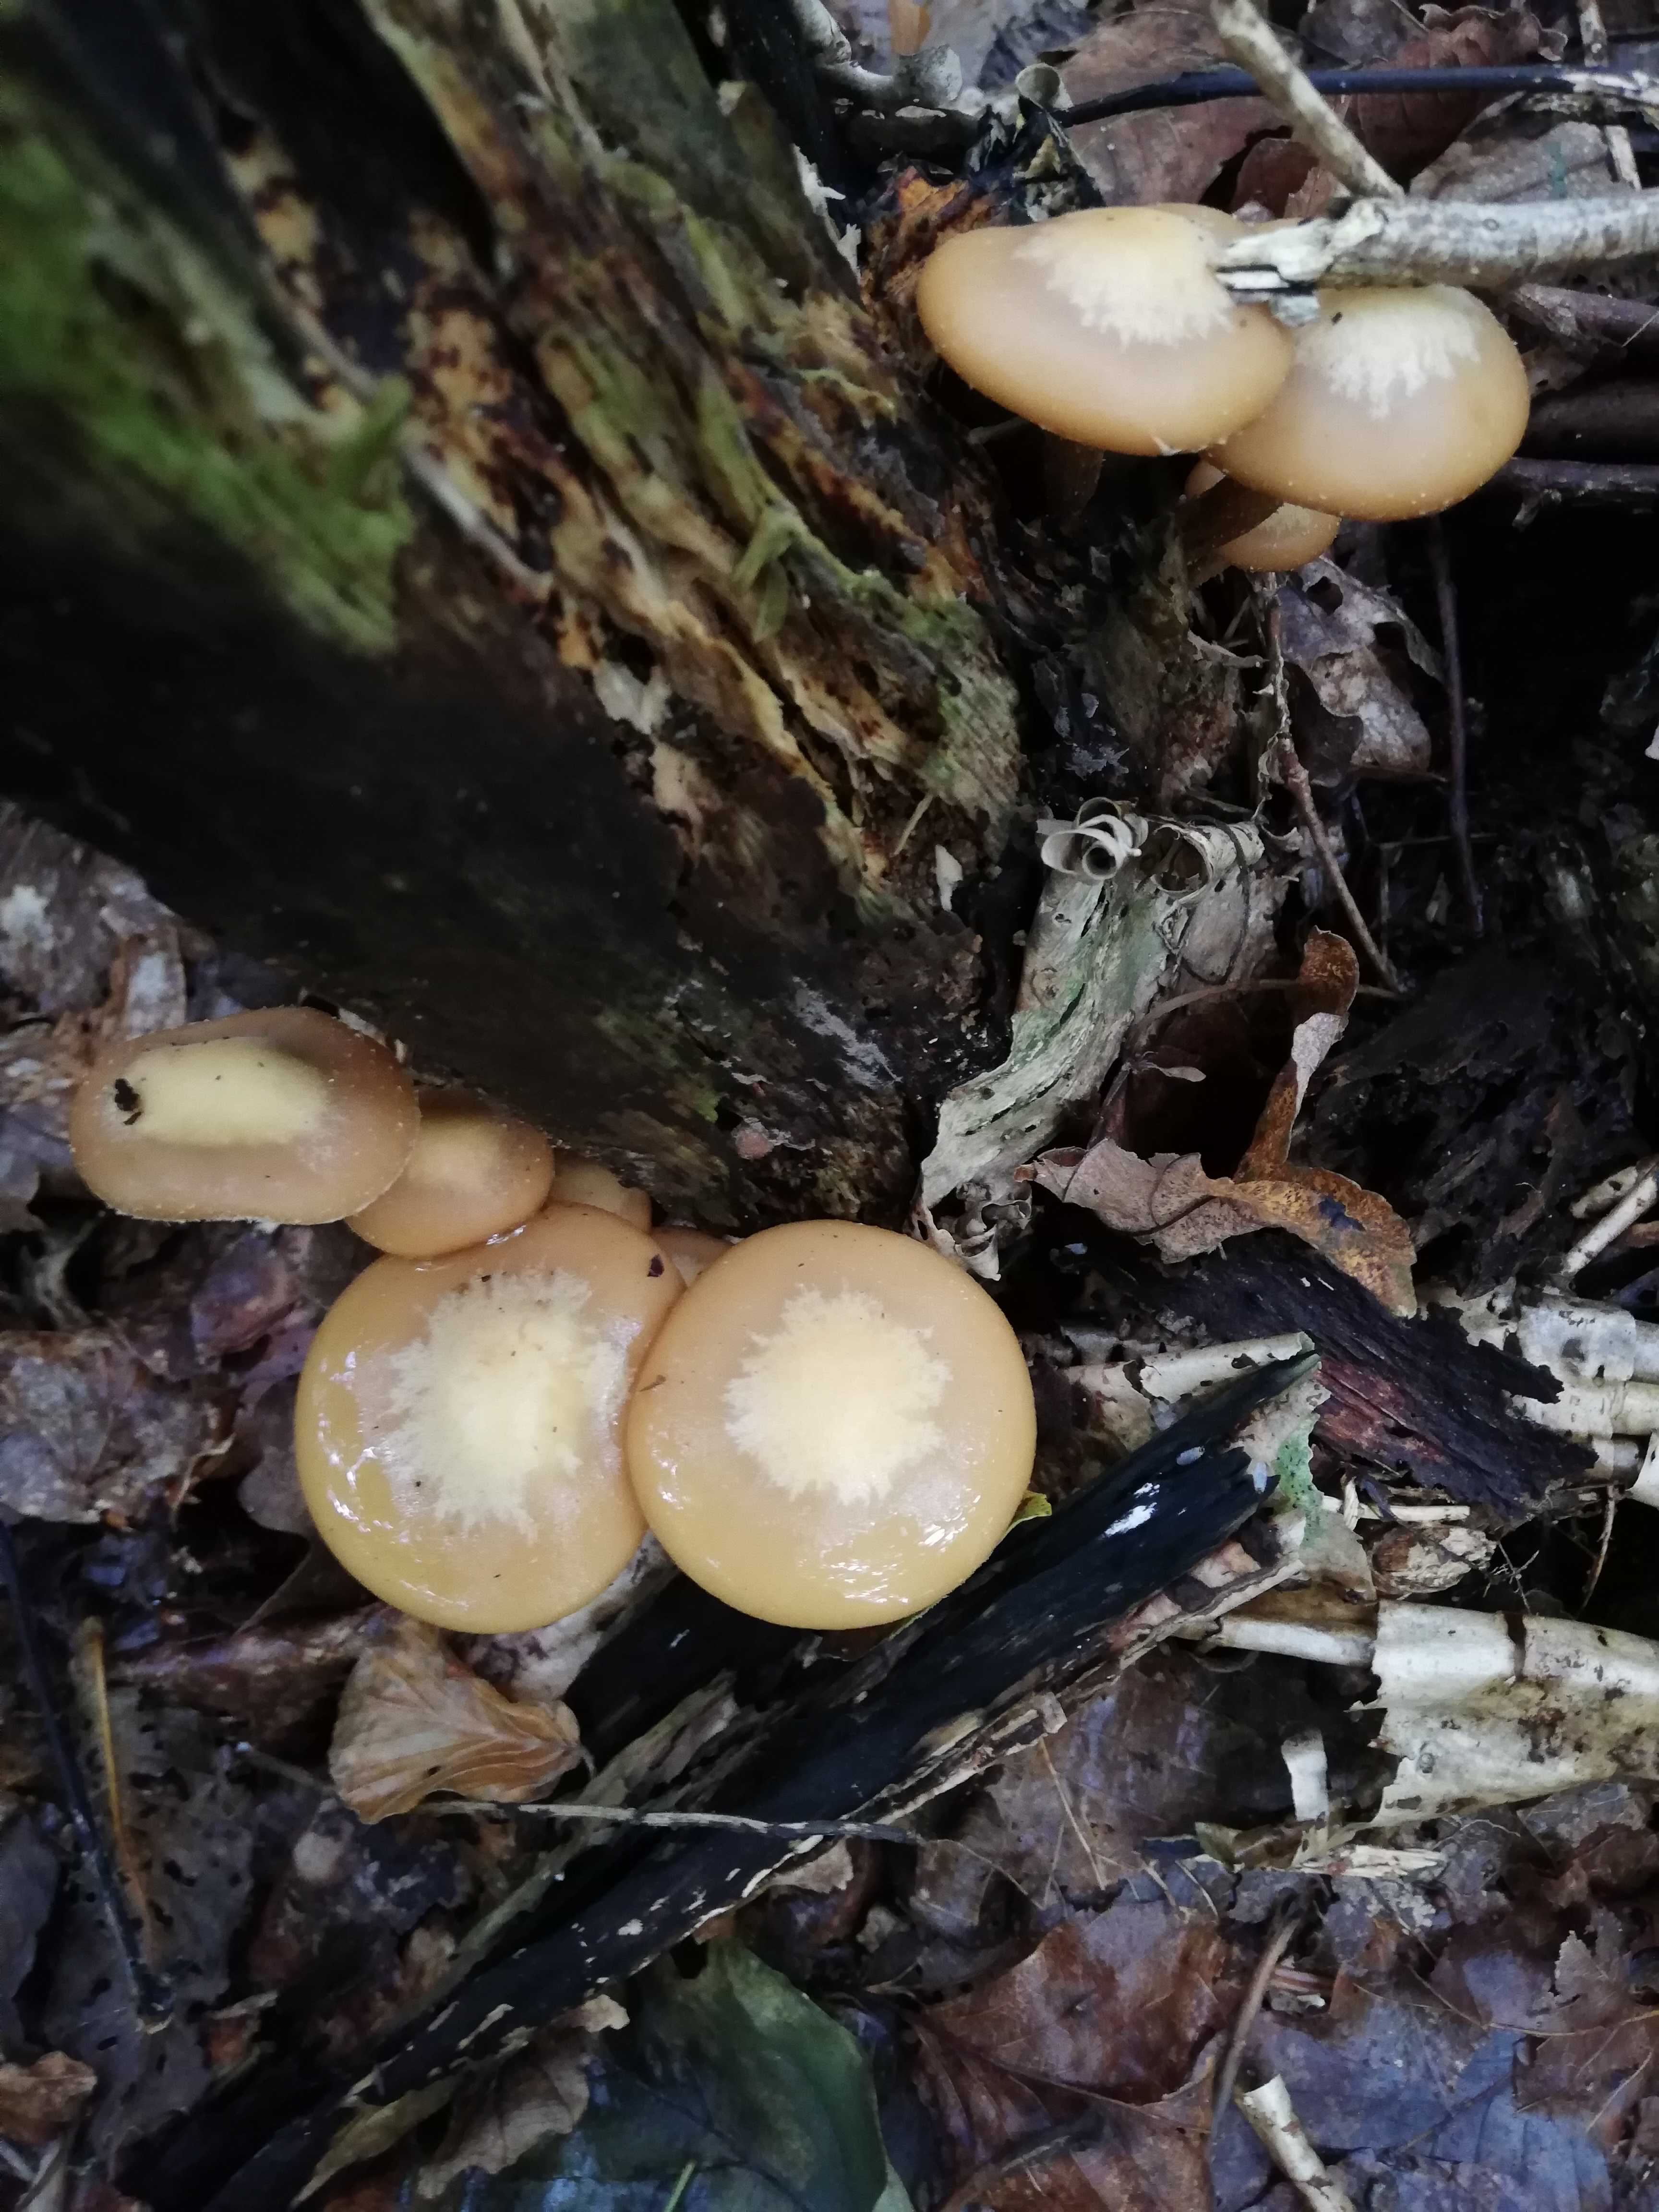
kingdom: Fungi
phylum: Basidiomycota
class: Agaricomycetes
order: Agaricales
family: Strophariaceae
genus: Kuehneromyces
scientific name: Kuehneromyces mutabilis
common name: foranderlig skælhat
